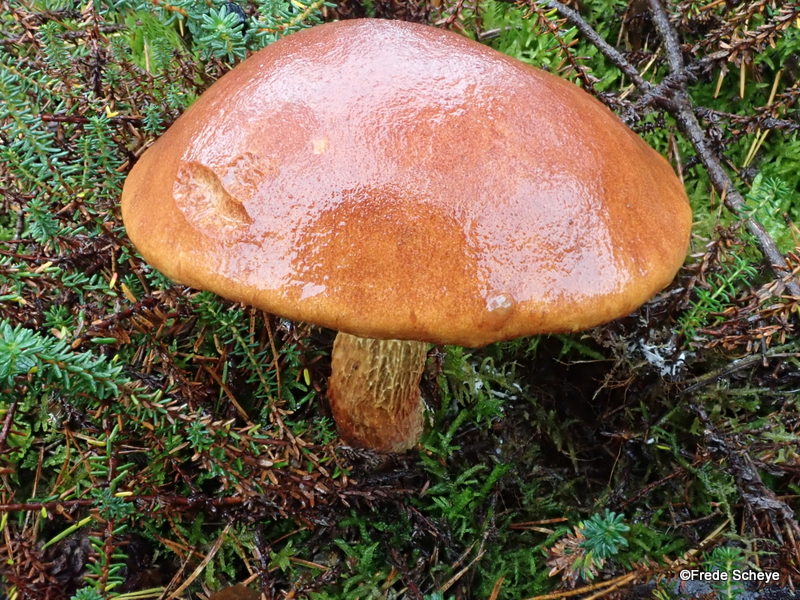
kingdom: Fungi
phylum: Basidiomycota
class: Agaricomycetes
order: Boletales
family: Boletaceae
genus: Aureoboletus
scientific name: Aureoboletus projectellus
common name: ribbestokket rørhat
